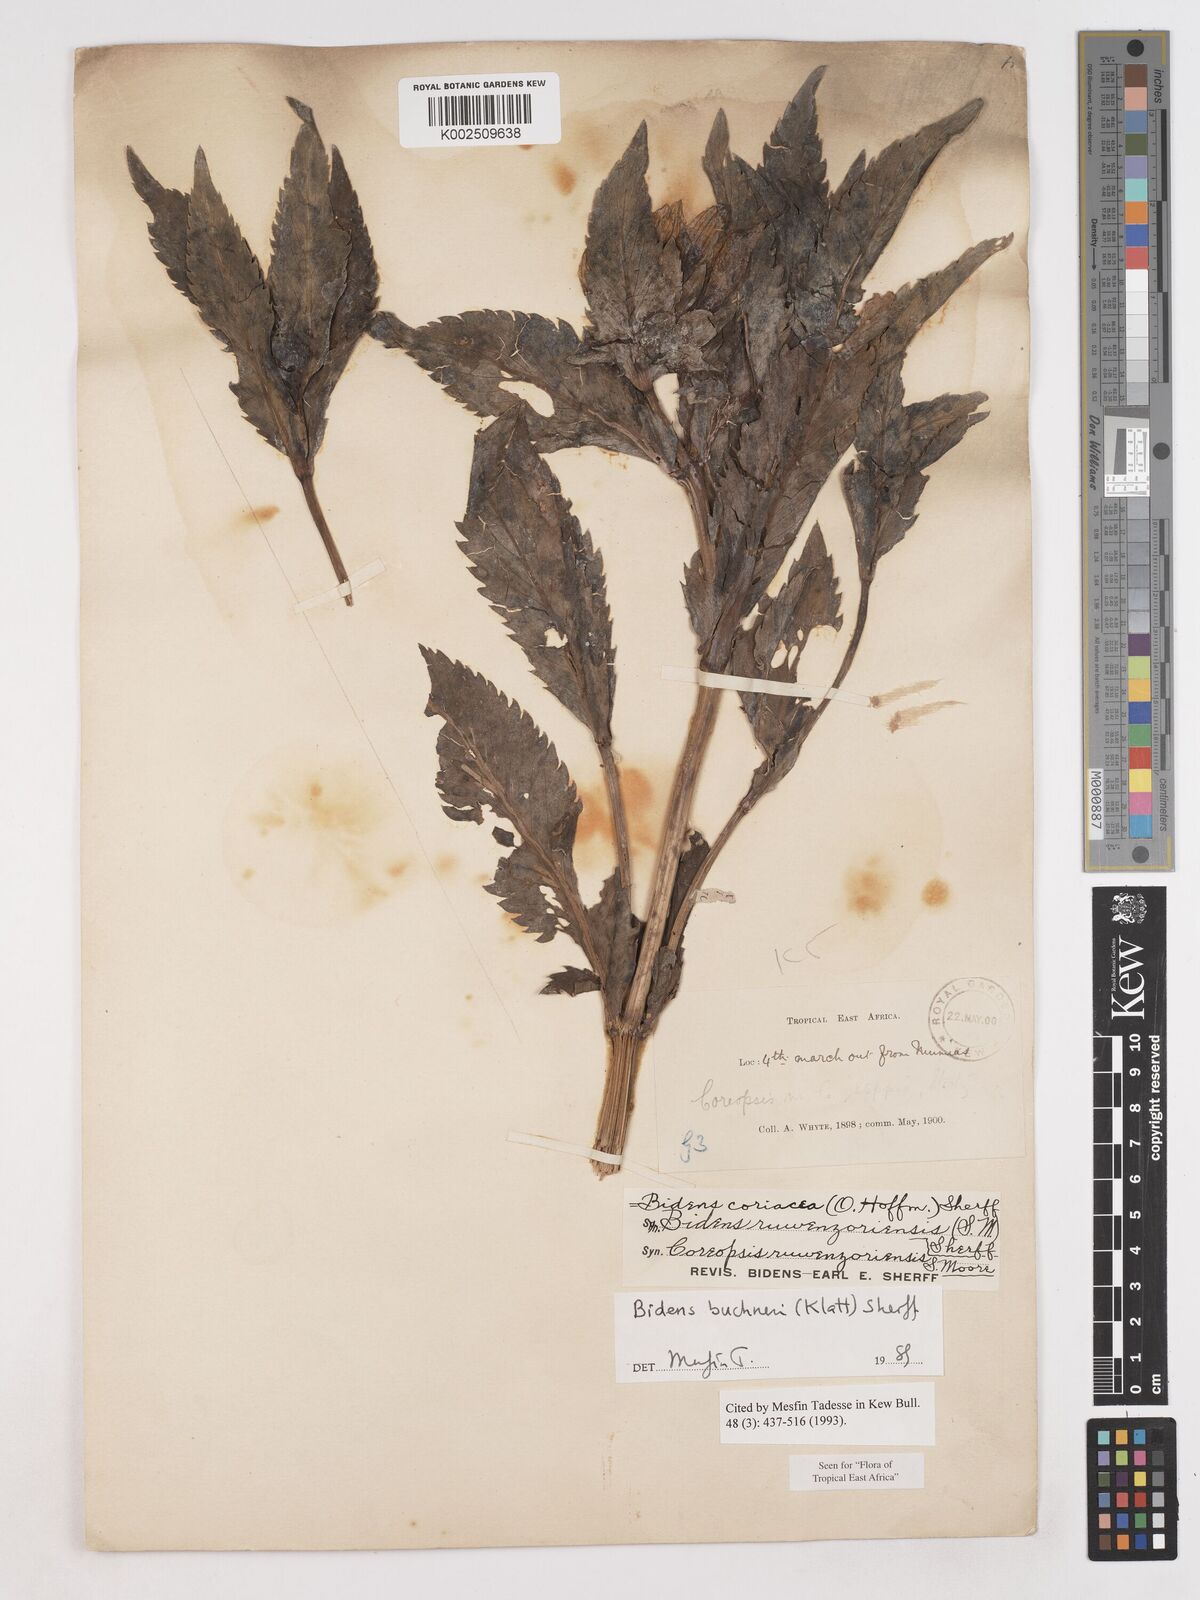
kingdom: Plantae
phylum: Tracheophyta
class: Magnoliopsida
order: Asterales
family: Asteraceae
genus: Bidens
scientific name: Bidens buchneri
